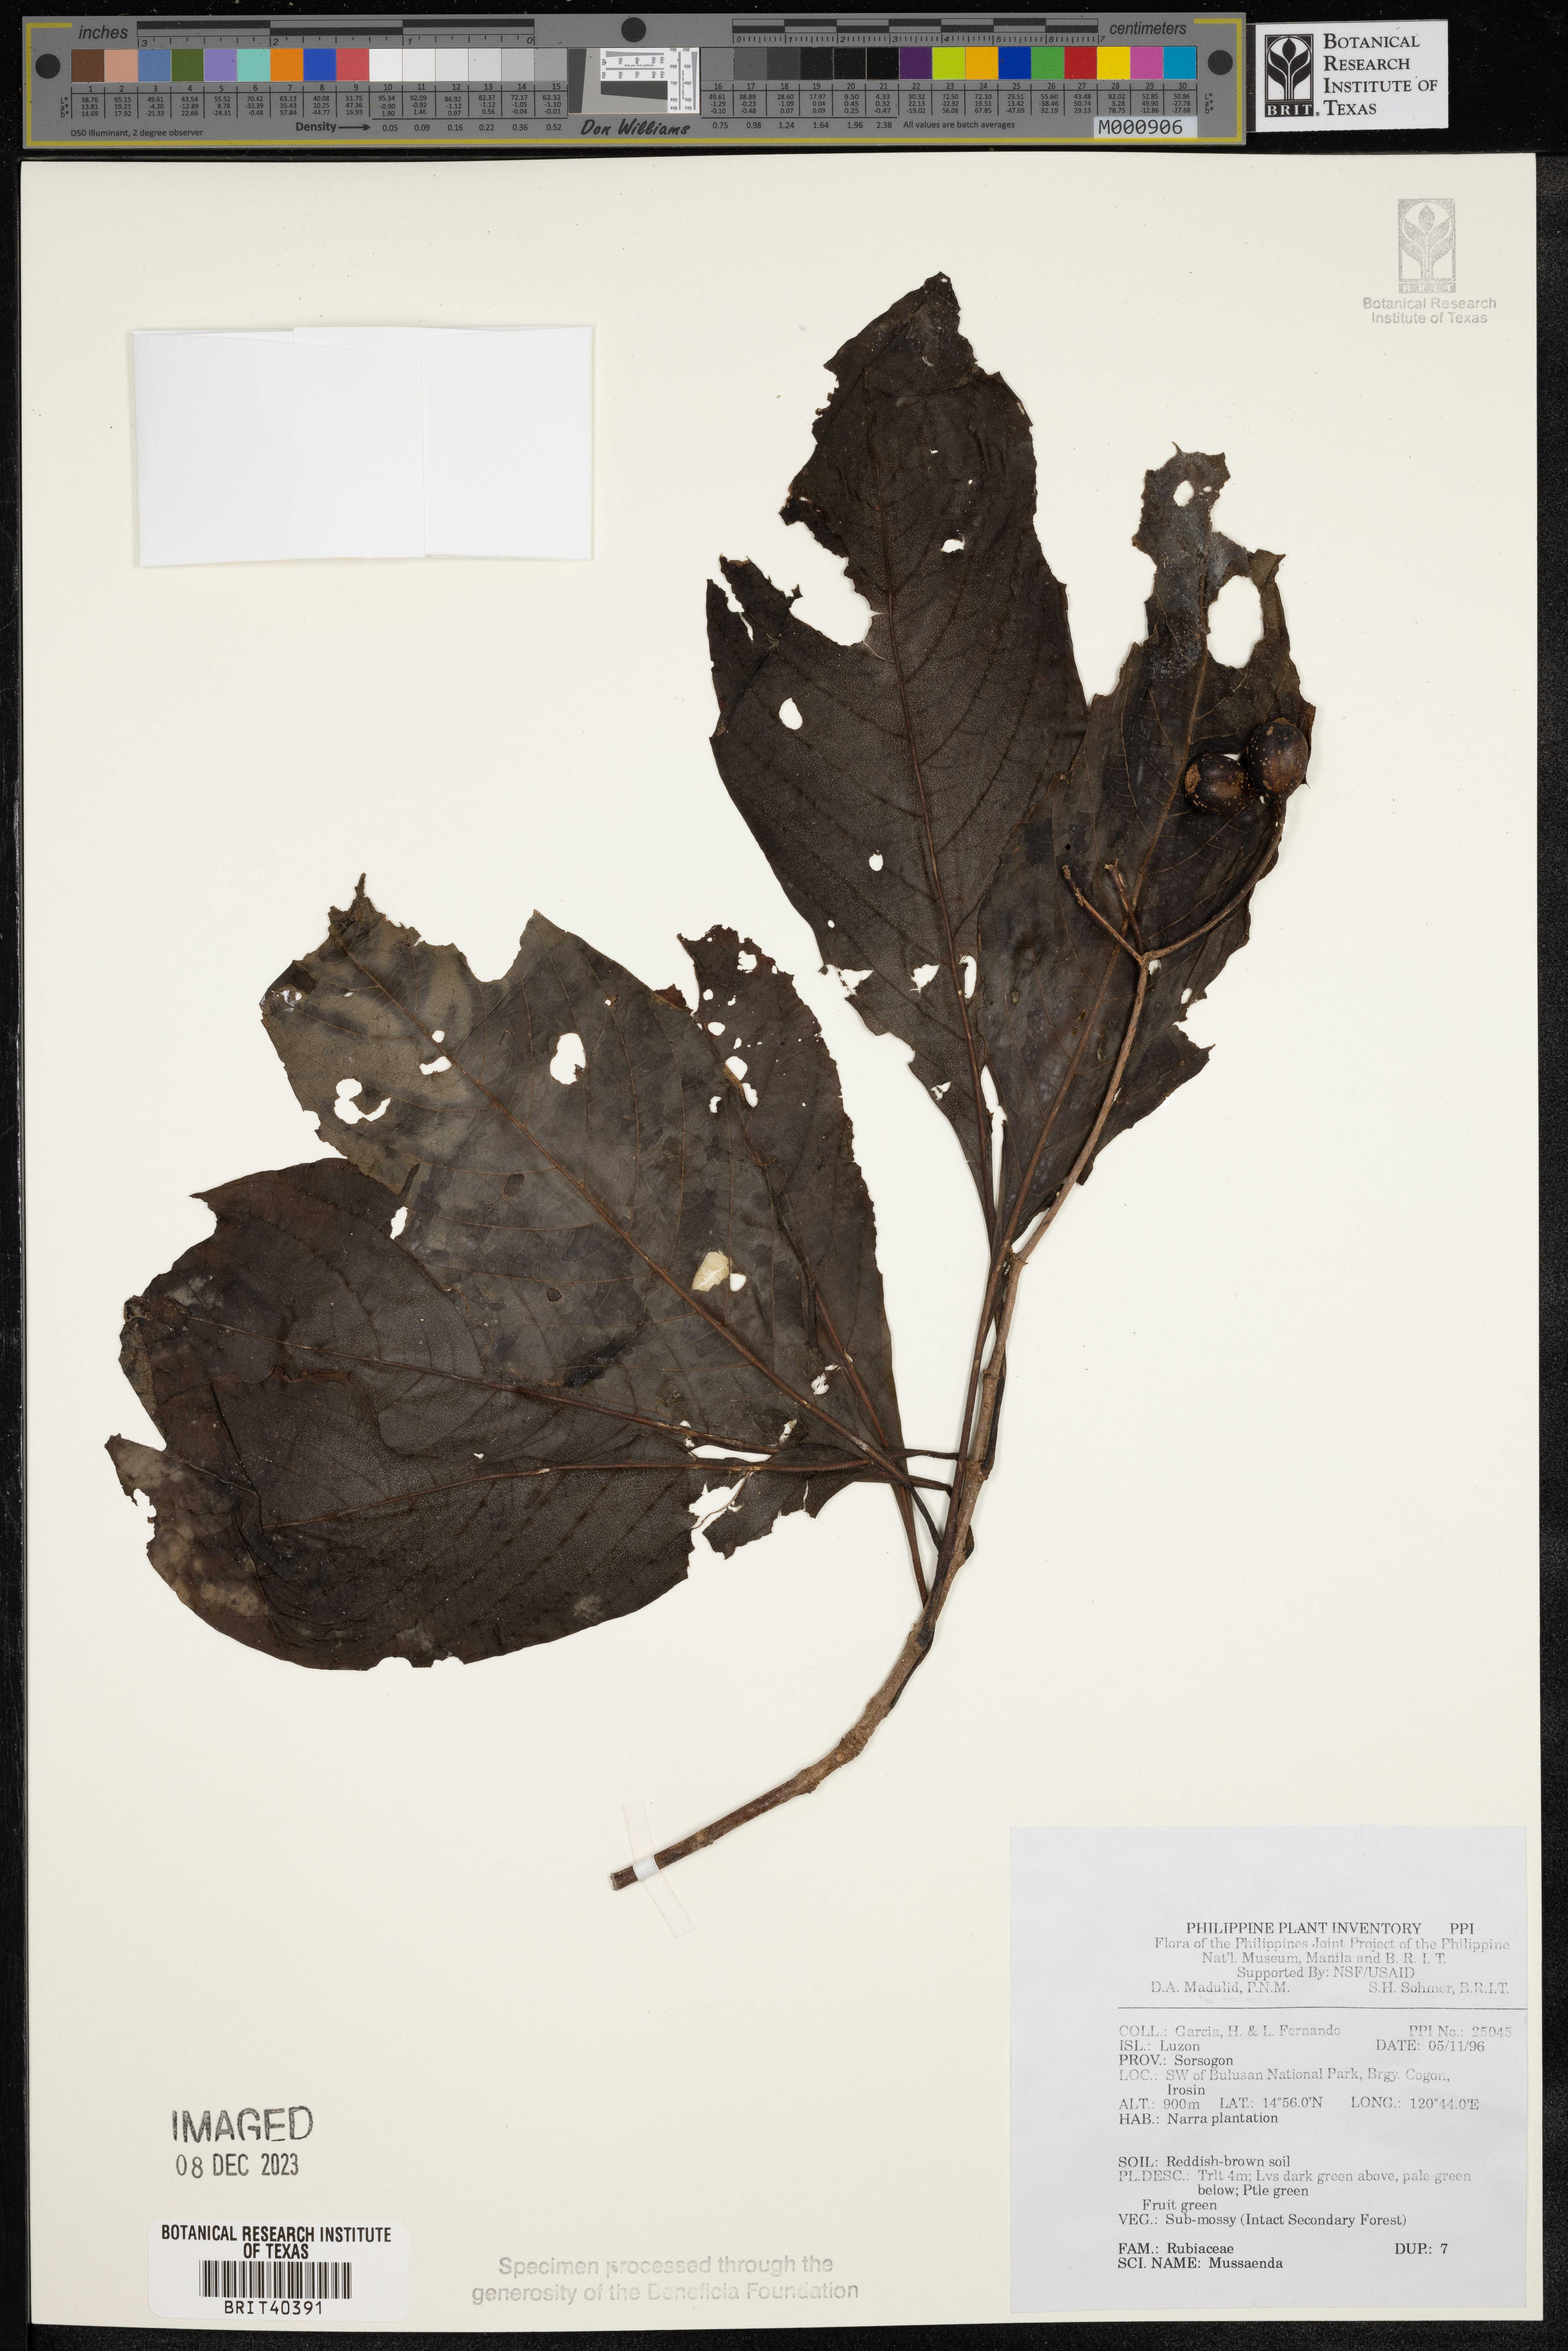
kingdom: Plantae
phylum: Tracheophyta
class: Magnoliopsida
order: Gentianales
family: Rubiaceae
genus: Mussaenda
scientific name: Mussaenda
